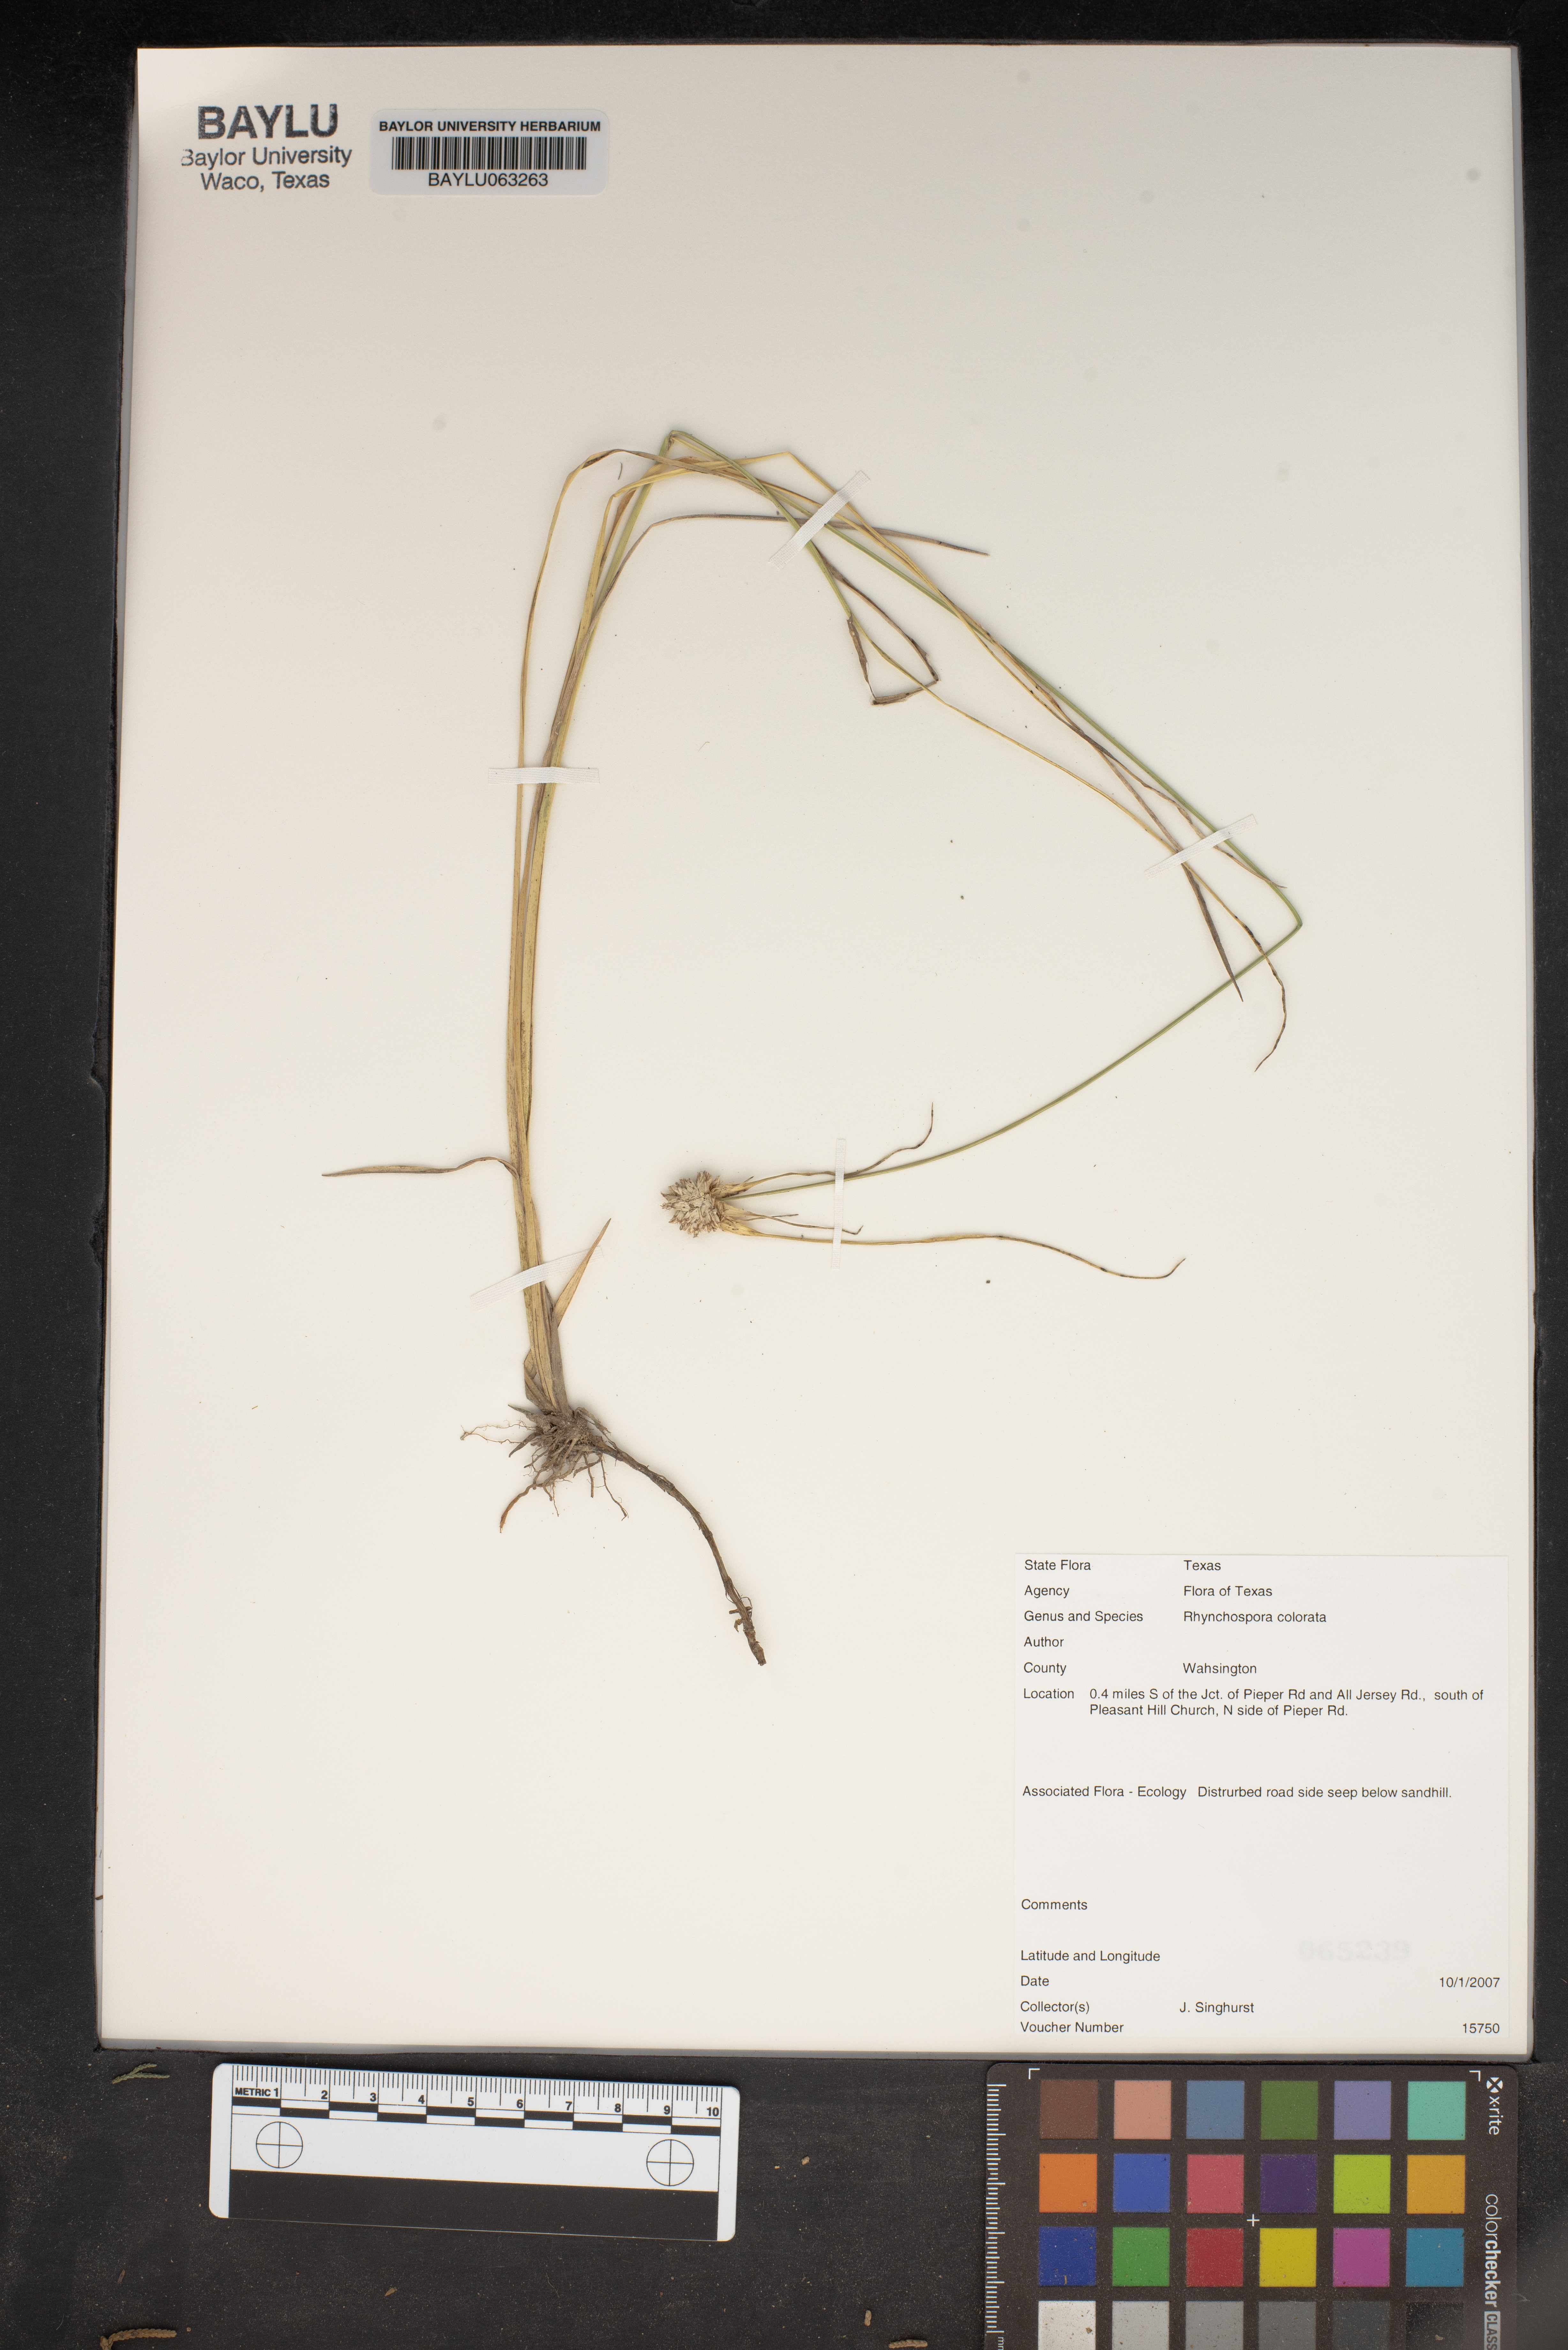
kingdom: Plantae
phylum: Tracheophyta
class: Liliopsida
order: Poales
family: Cyperaceae
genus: Rhynchospora
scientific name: Rhynchospora colorata
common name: Star sedge
